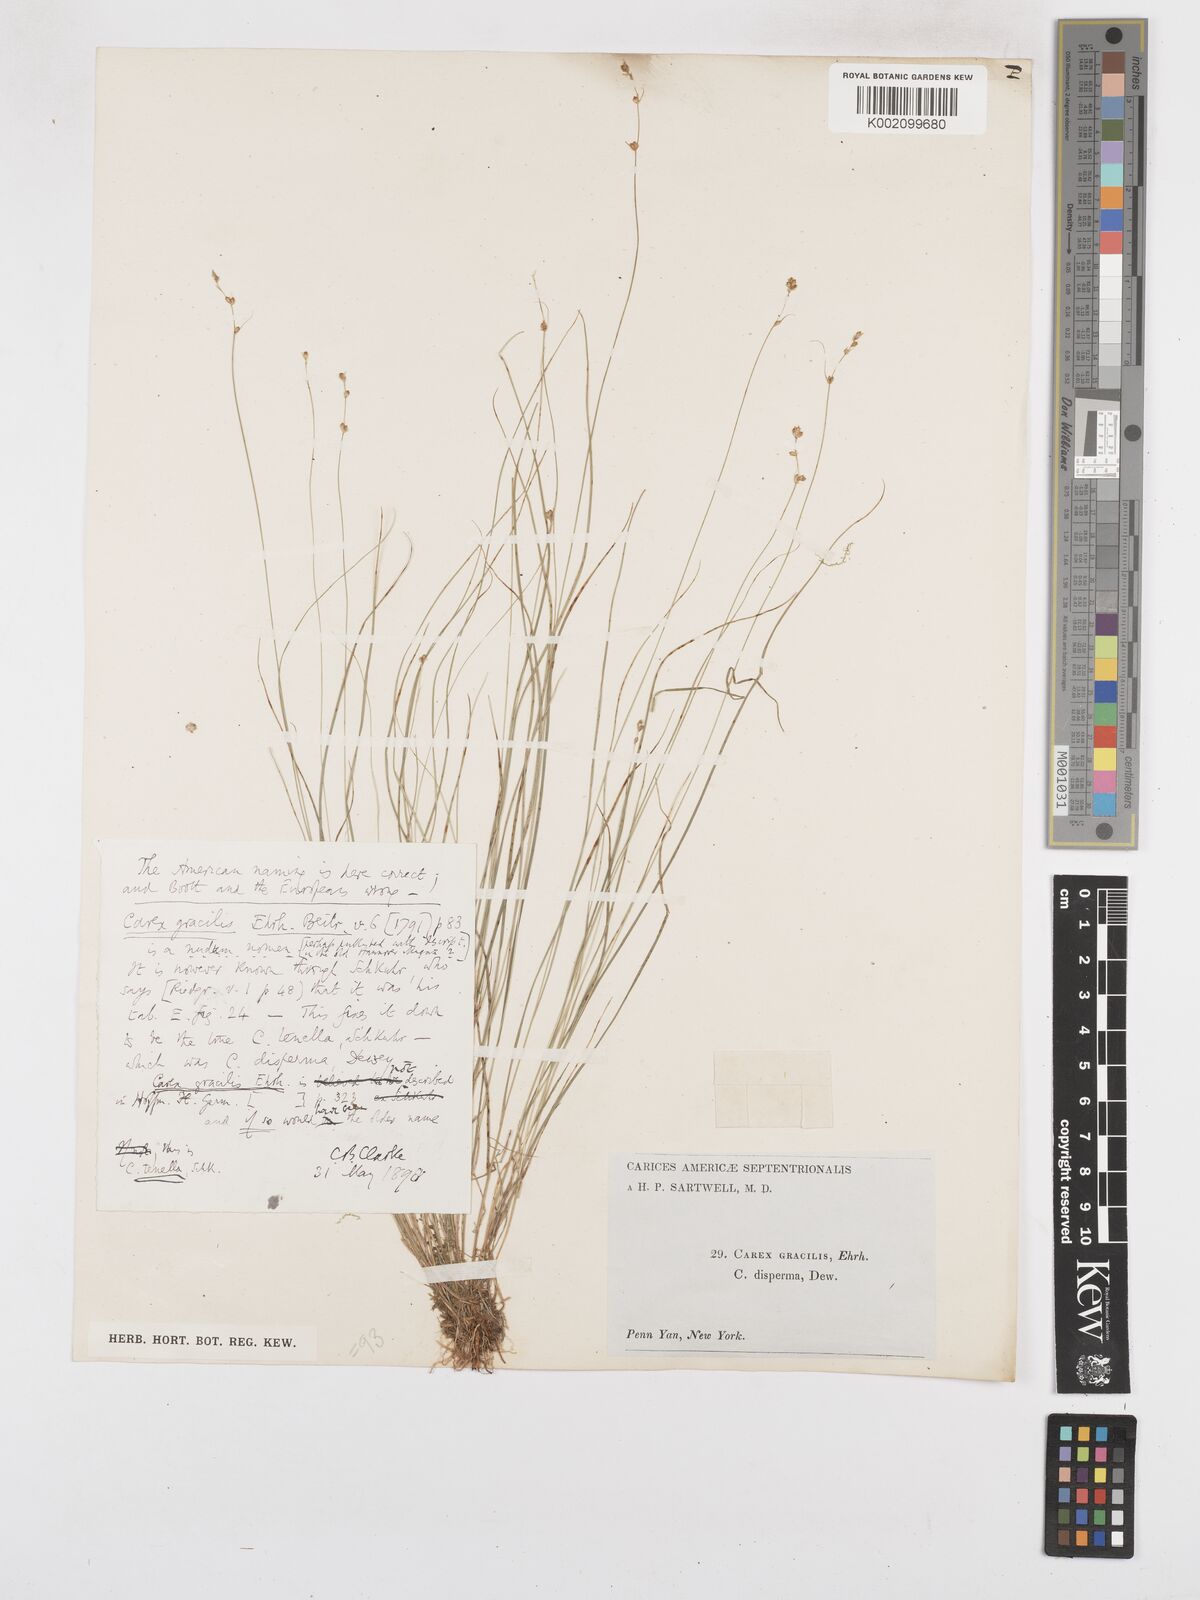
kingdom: Plantae
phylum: Tracheophyta
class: Liliopsida
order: Poales
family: Cyperaceae
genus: Carex
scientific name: Carex brunnescens
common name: Brown sedge
